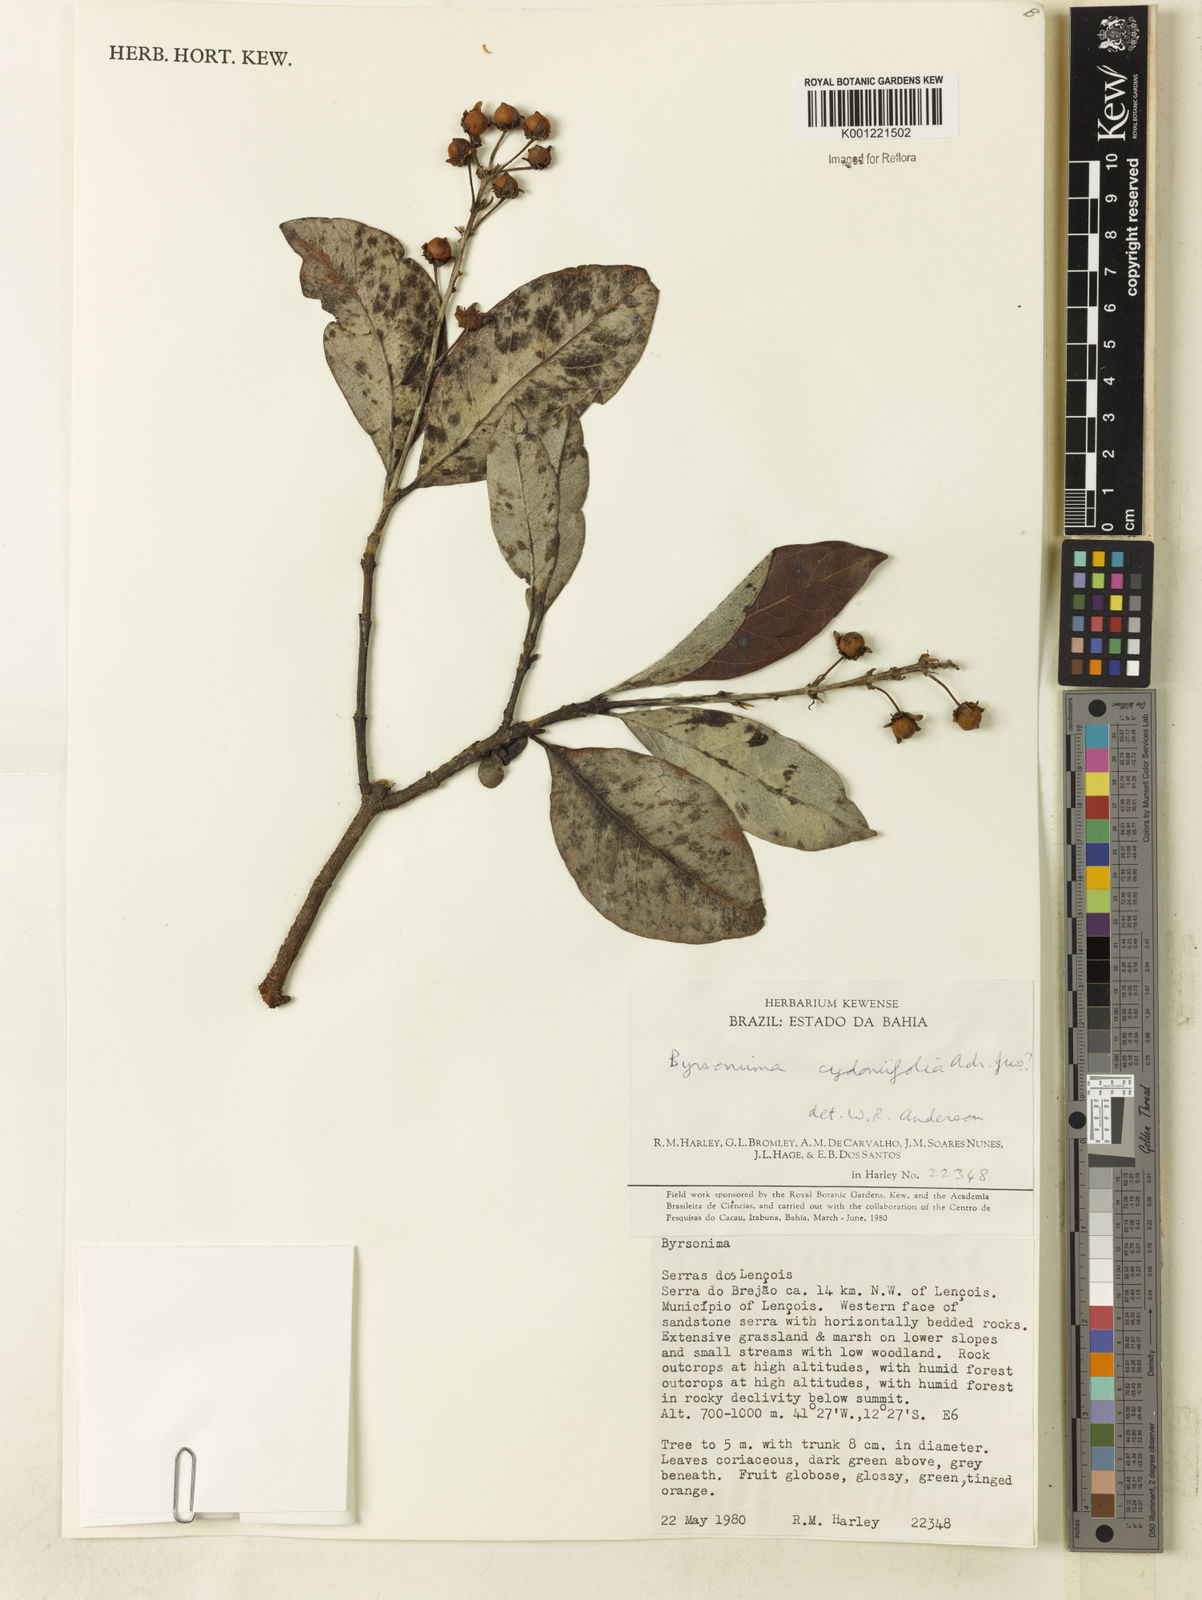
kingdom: Plantae
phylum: Tracheophyta
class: Magnoliopsida
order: Malpighiales
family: Malpighiaceae
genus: Byrsonima
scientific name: Byrsonima cydoniifolia
